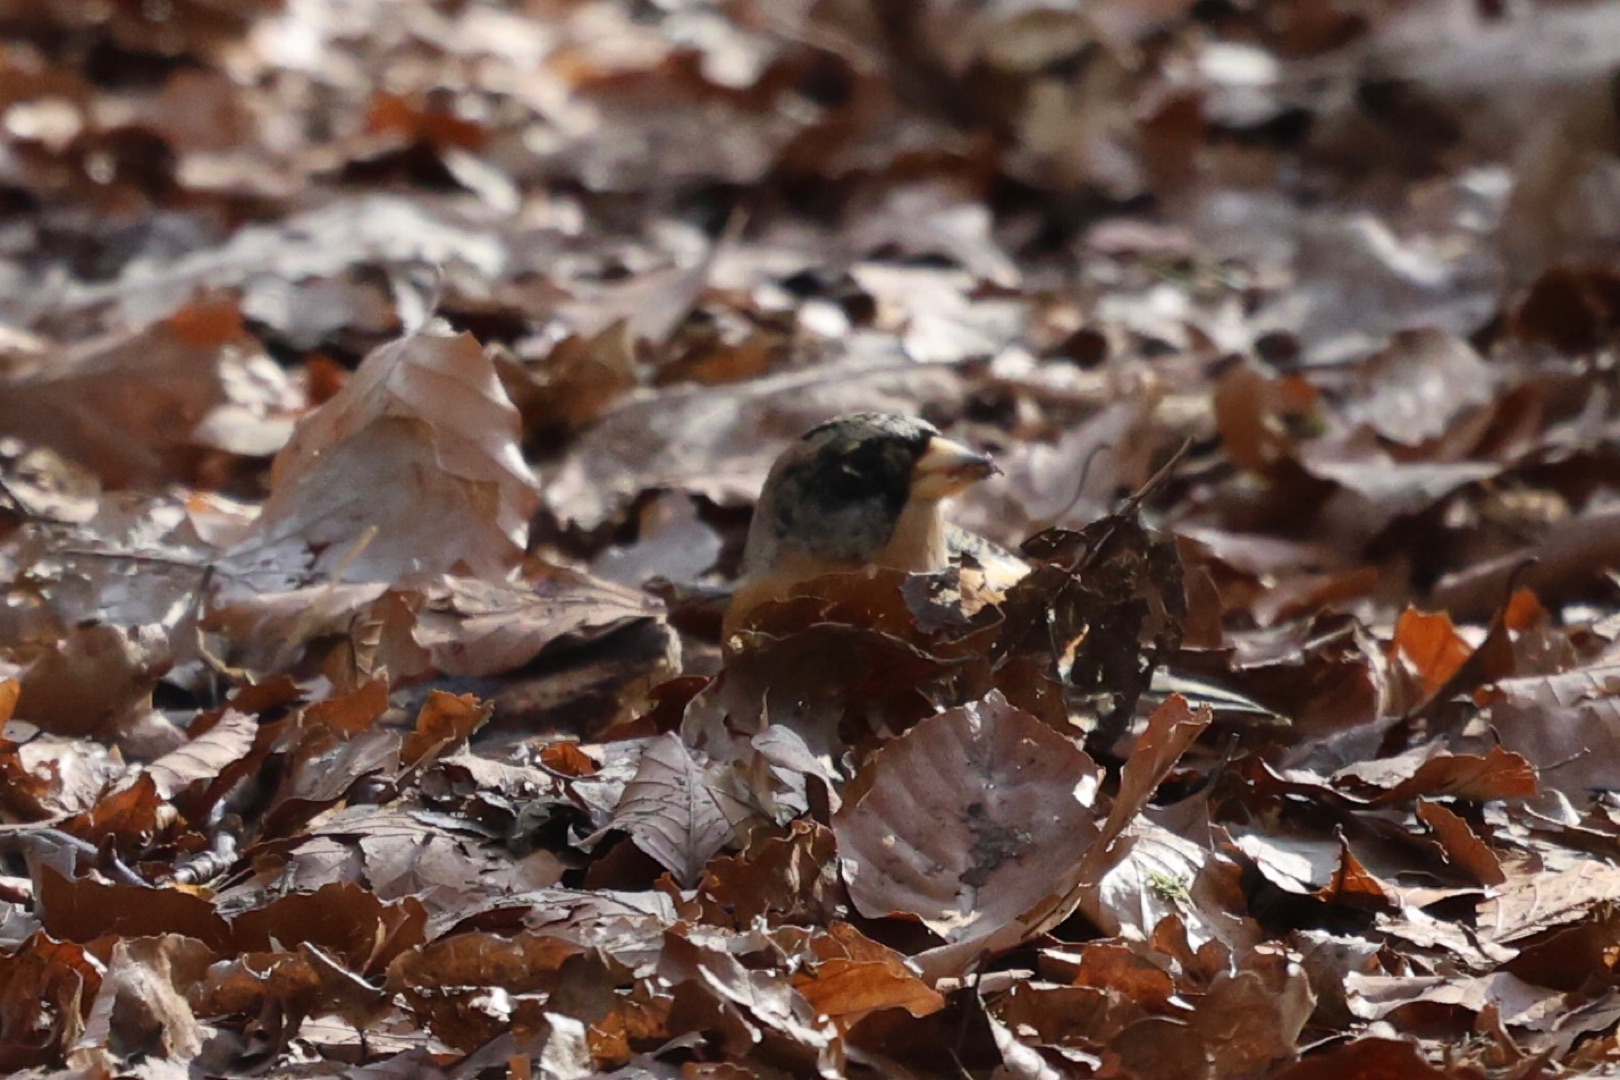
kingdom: Animalia
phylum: Chordata
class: Aves
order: Passeriformes
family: Fringillidae
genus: Fringilla
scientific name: Fringilla montifringilla
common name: Kvækerfinke
